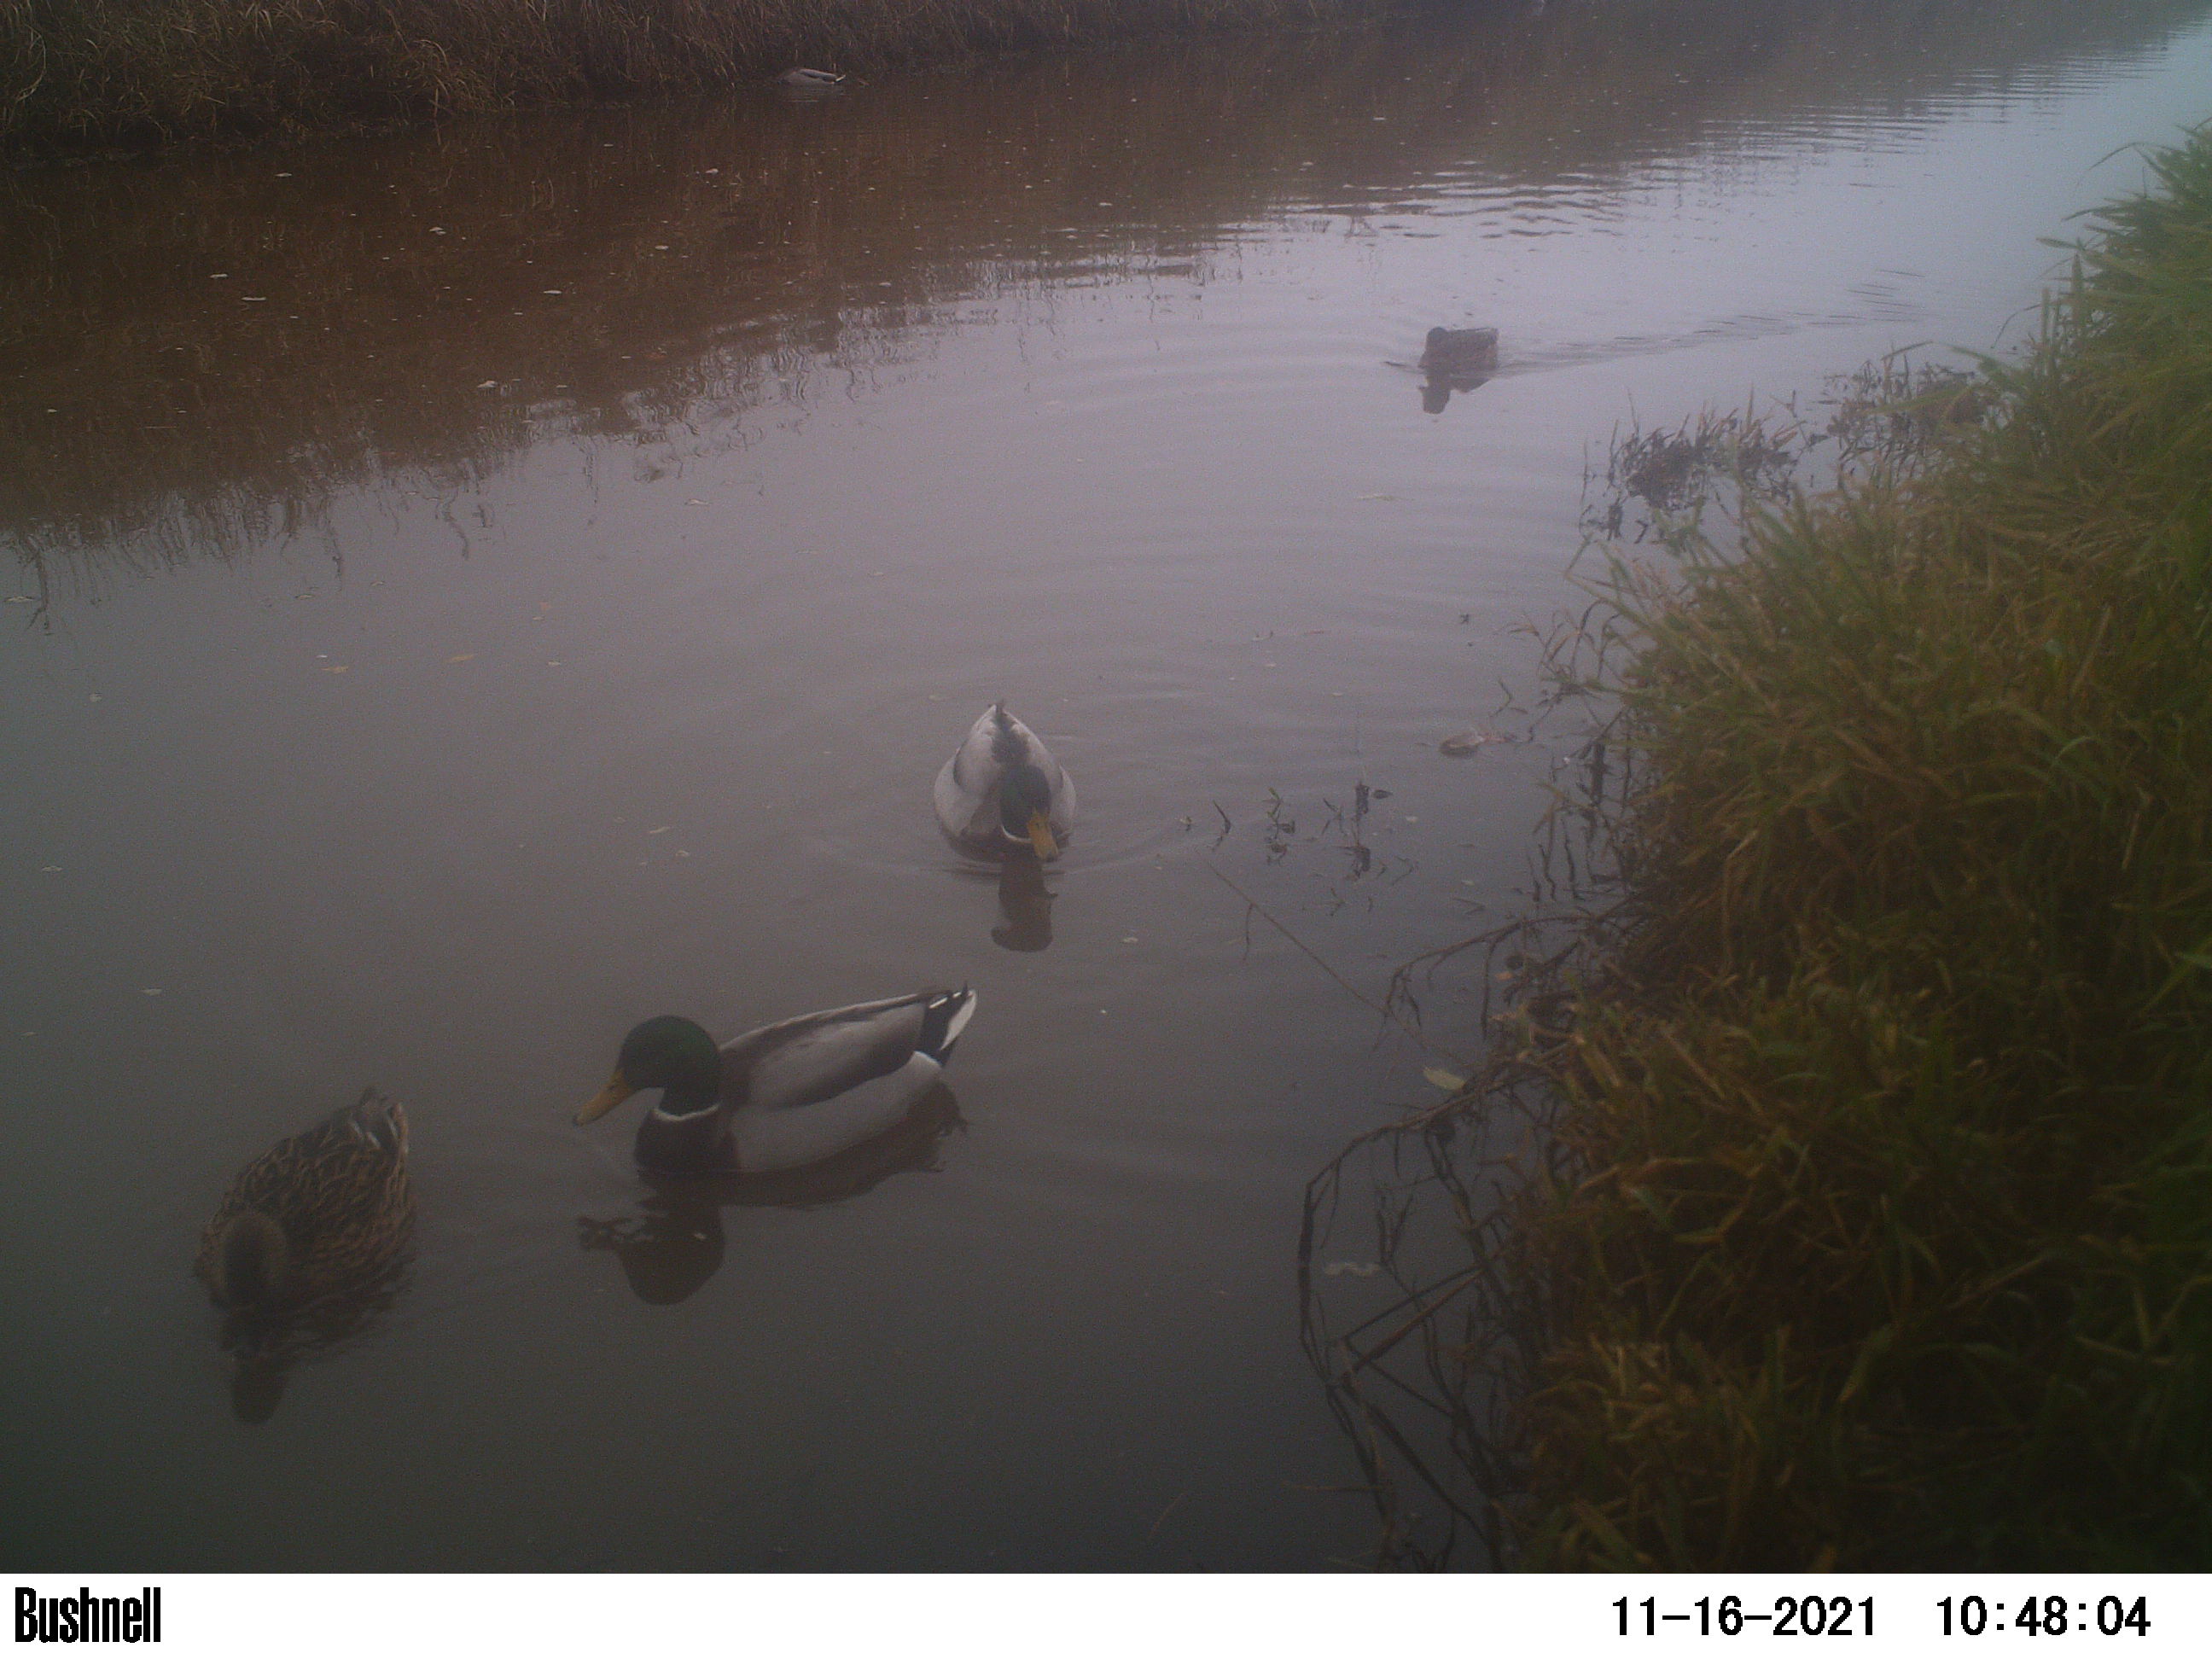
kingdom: Animalia
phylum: Chordata
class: Aves
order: Anseriformes
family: Anatidae
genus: Anas
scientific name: Anas
